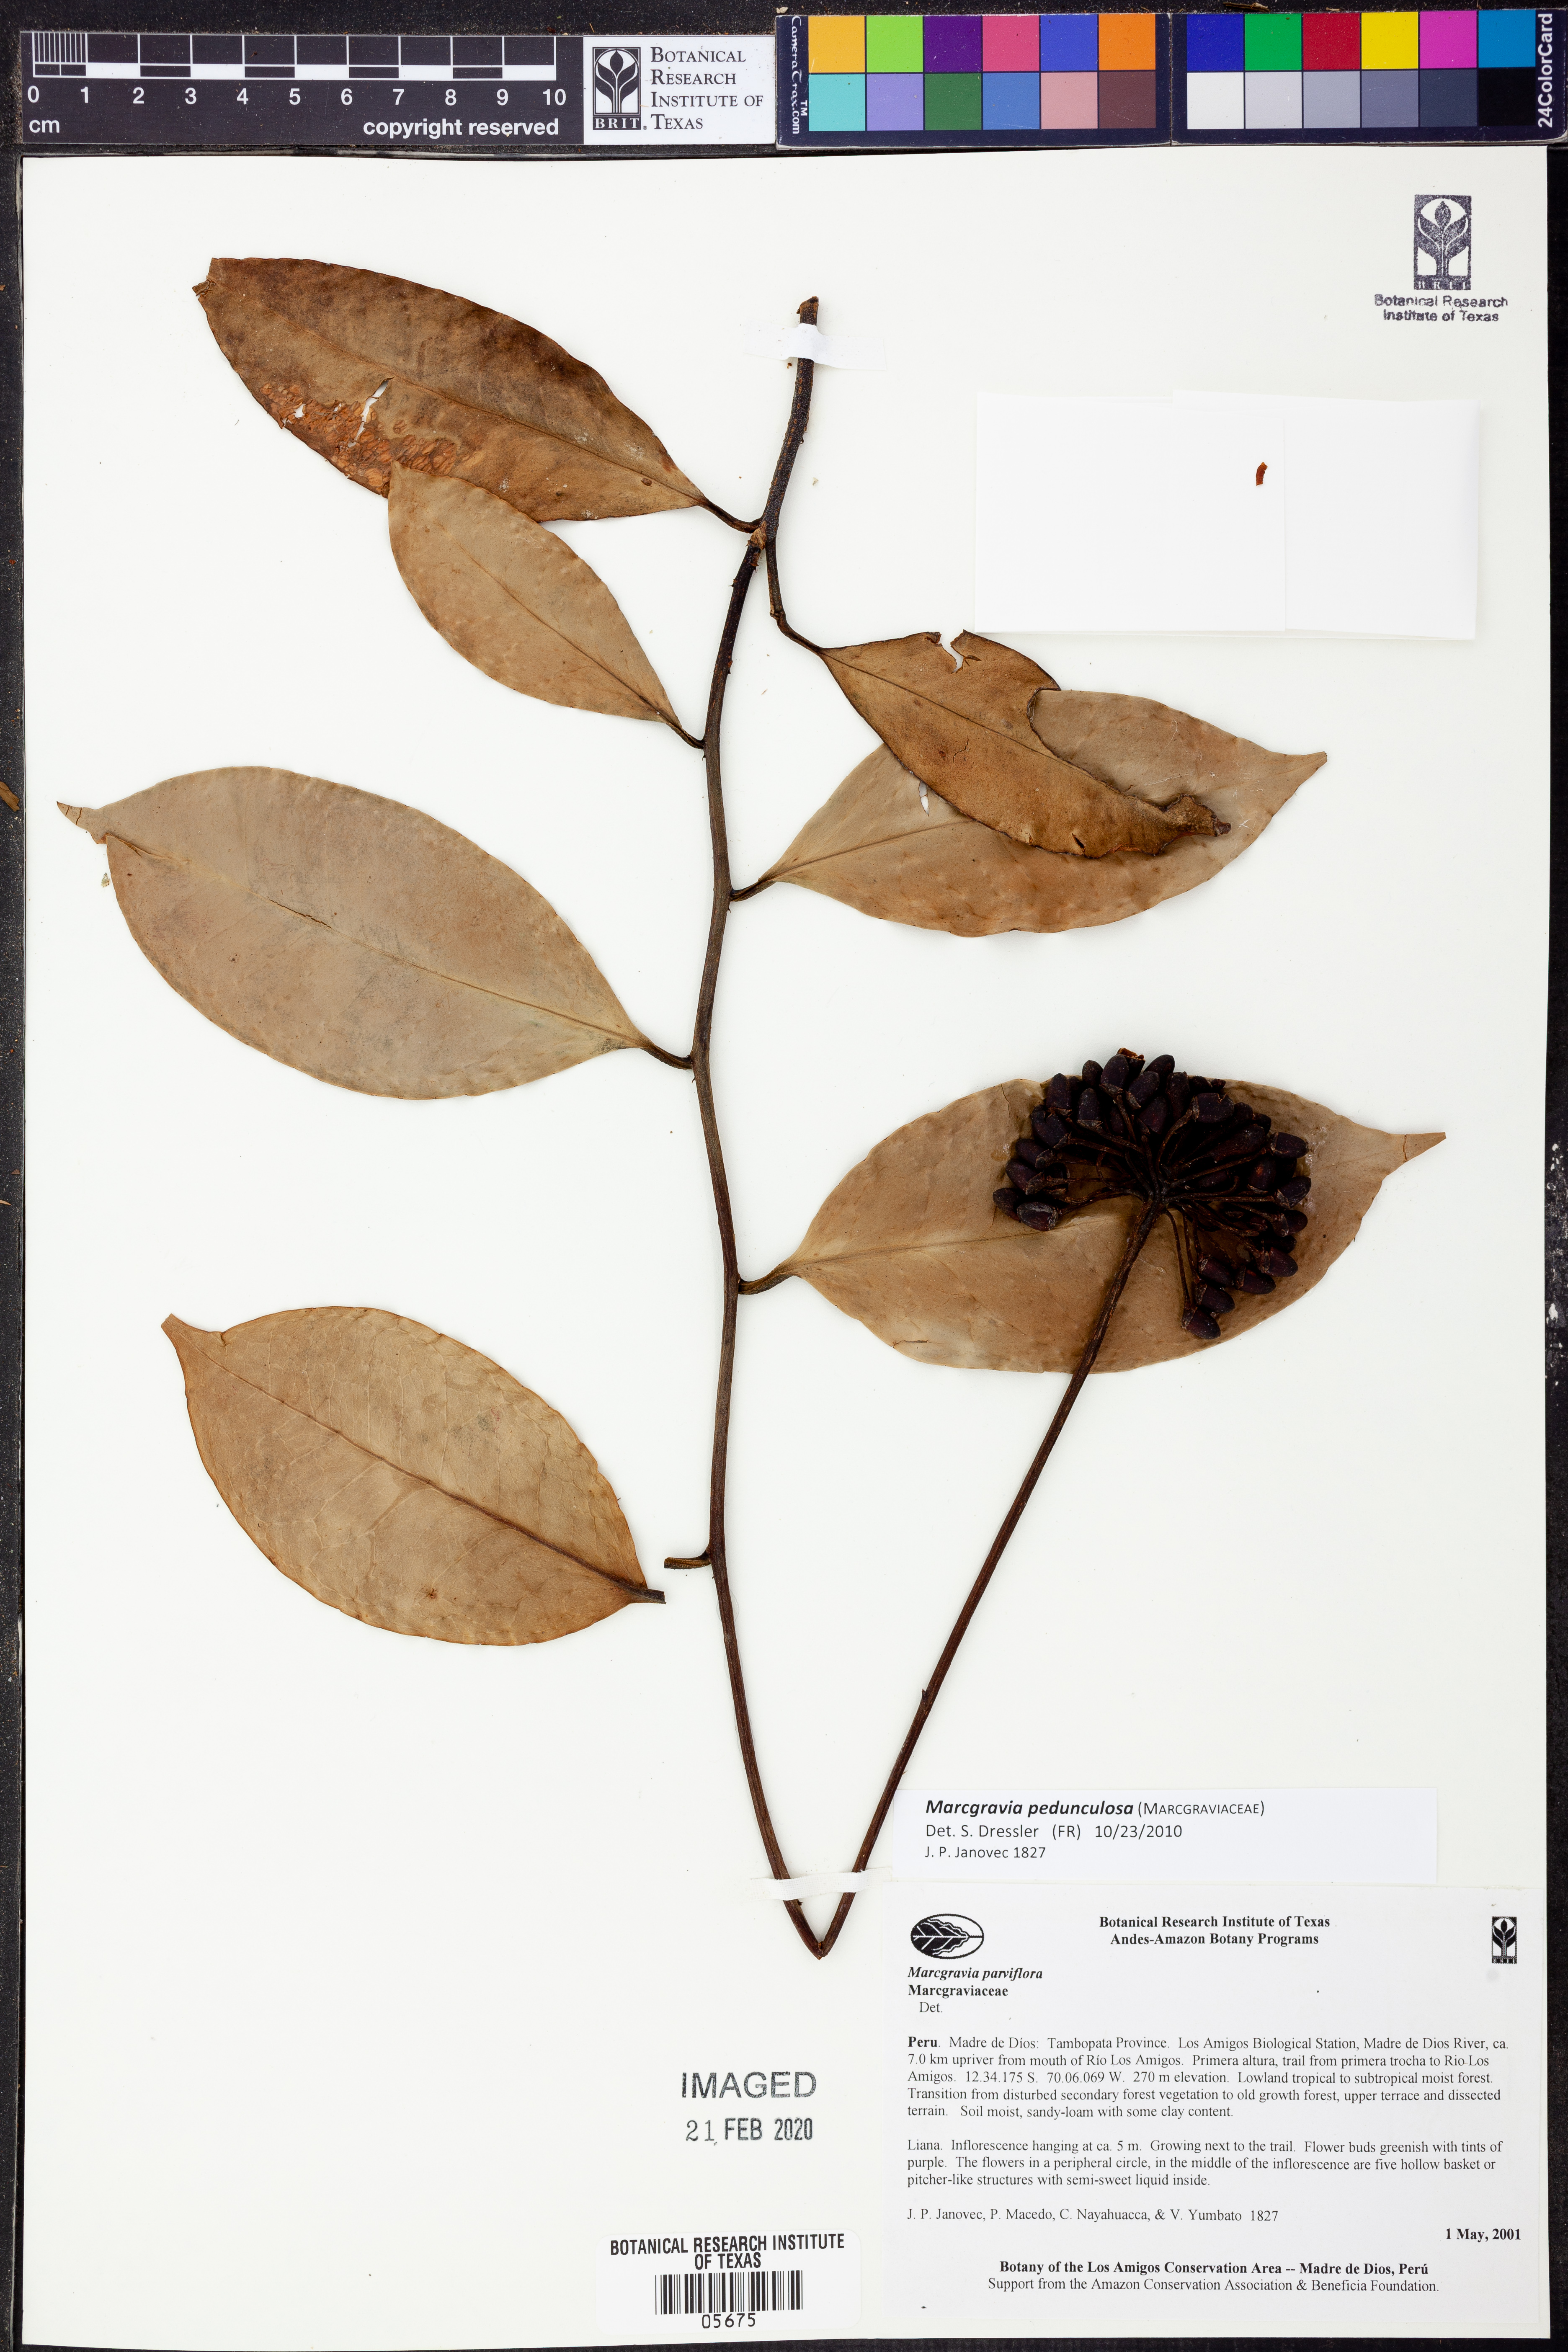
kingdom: Plantae
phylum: Tracheophyta
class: Magnoliopsida
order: Ericales
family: Marcgraviaceae
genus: Marcgravia
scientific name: Marcgravia
